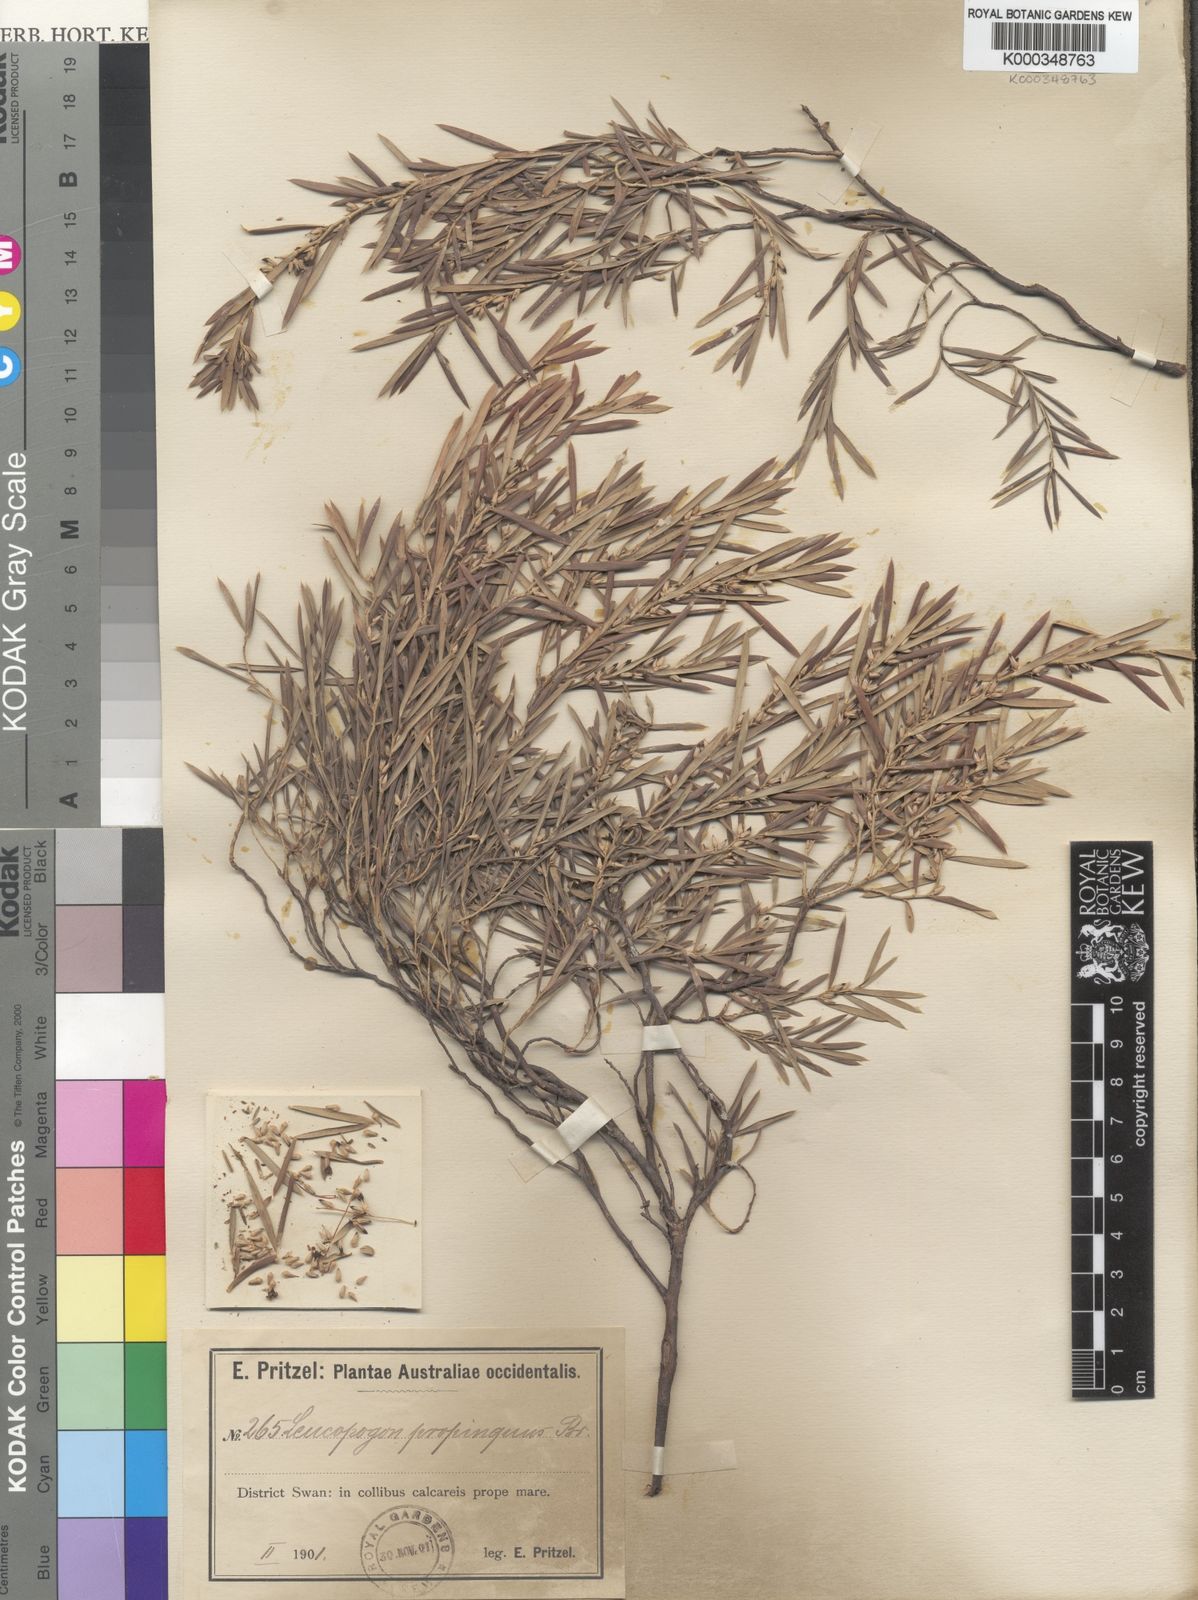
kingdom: Plantae
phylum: Tracheophyta
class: Magnoliopsida
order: Ericales
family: Ericaceae
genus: Styphelia
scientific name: Styphelia propinqua
